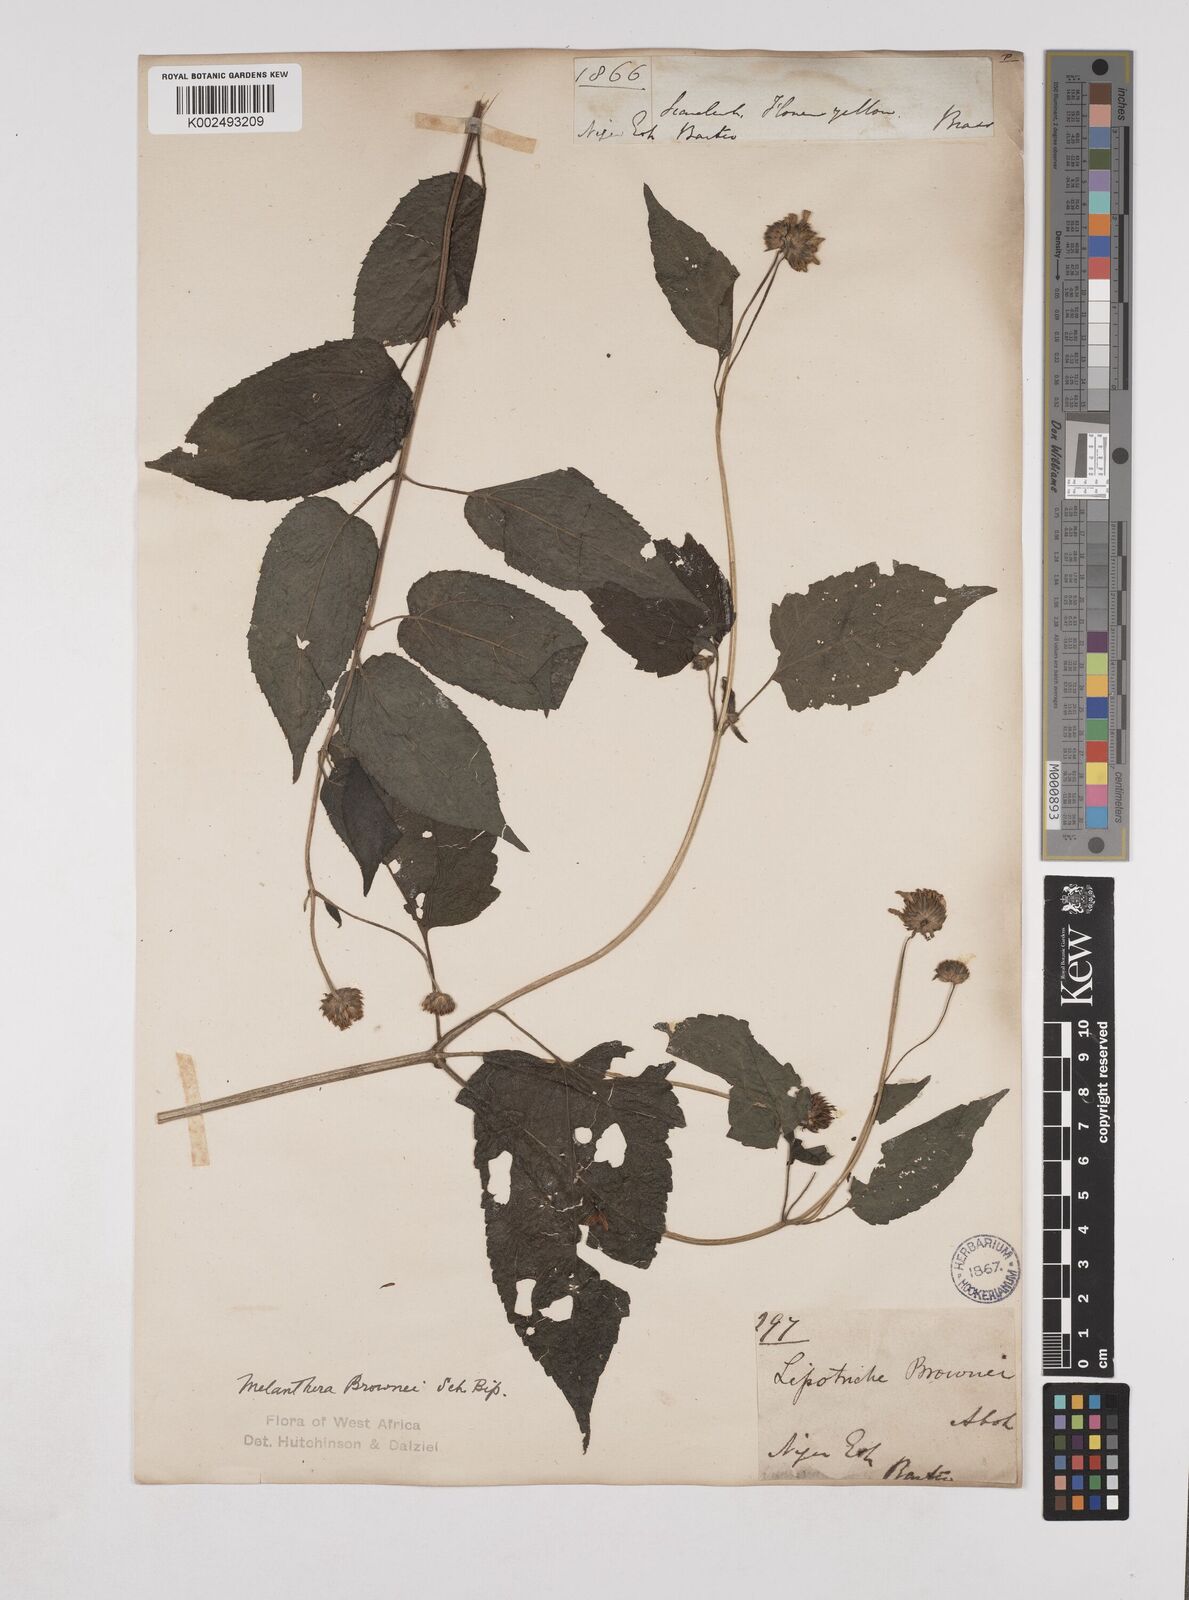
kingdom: Plantae
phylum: Tracheophyta
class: Magnoliopsida
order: Asterales
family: Asteraceae
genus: Lipotriche
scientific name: Lipotriche scandens
